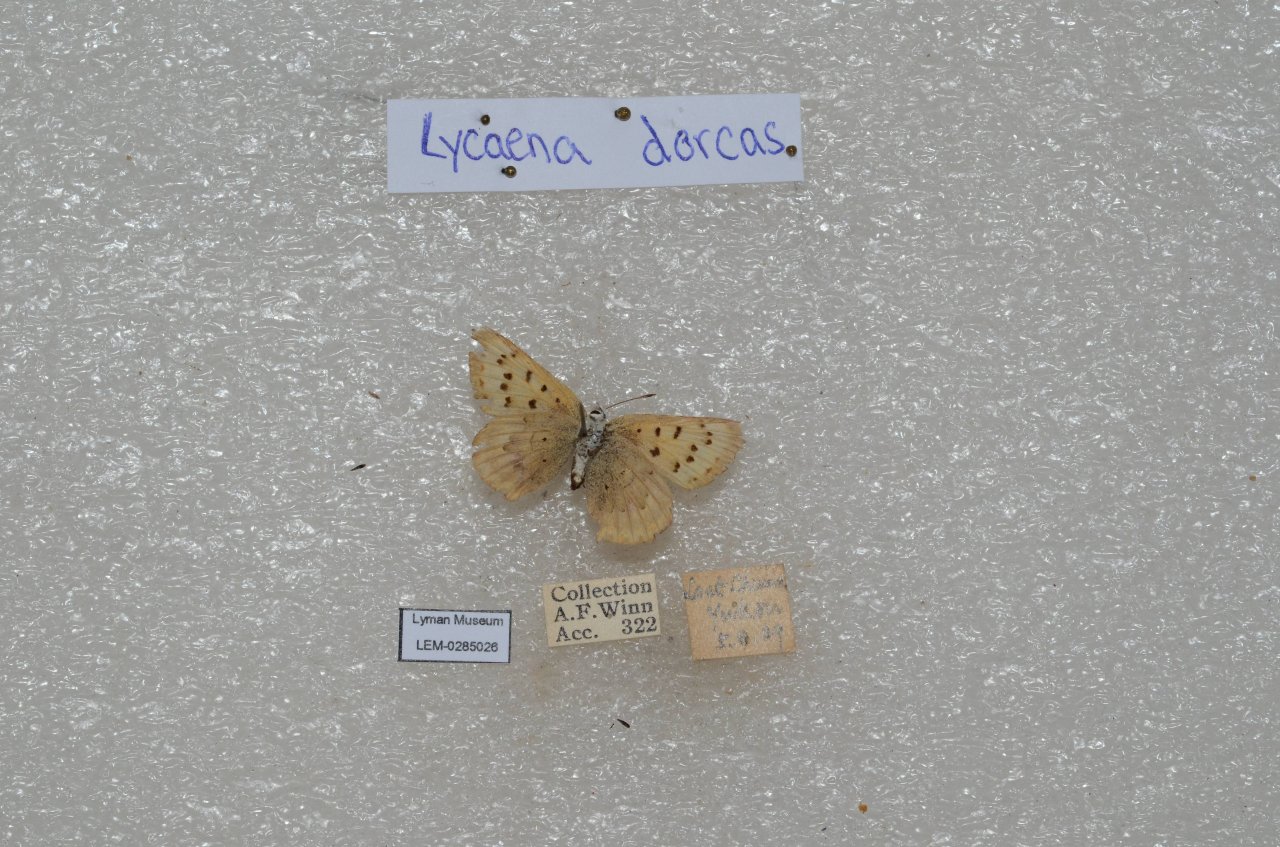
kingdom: Animalia
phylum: Arthropoda
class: Insecta
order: Lepidoptera
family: Lycaenidae
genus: Epidemia
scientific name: Epidemia dorcas
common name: Dorcas Copper
